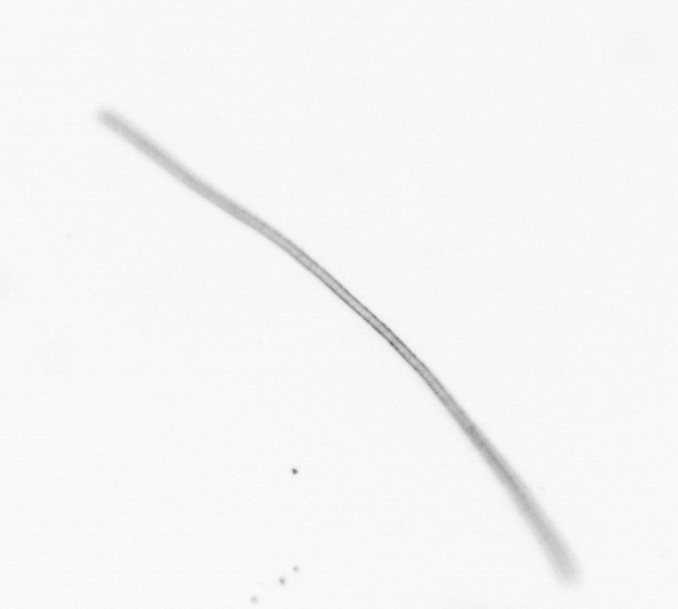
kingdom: Chromista
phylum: Ochrophyta
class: Bacillariophyceae
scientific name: Bacillariophyceae
